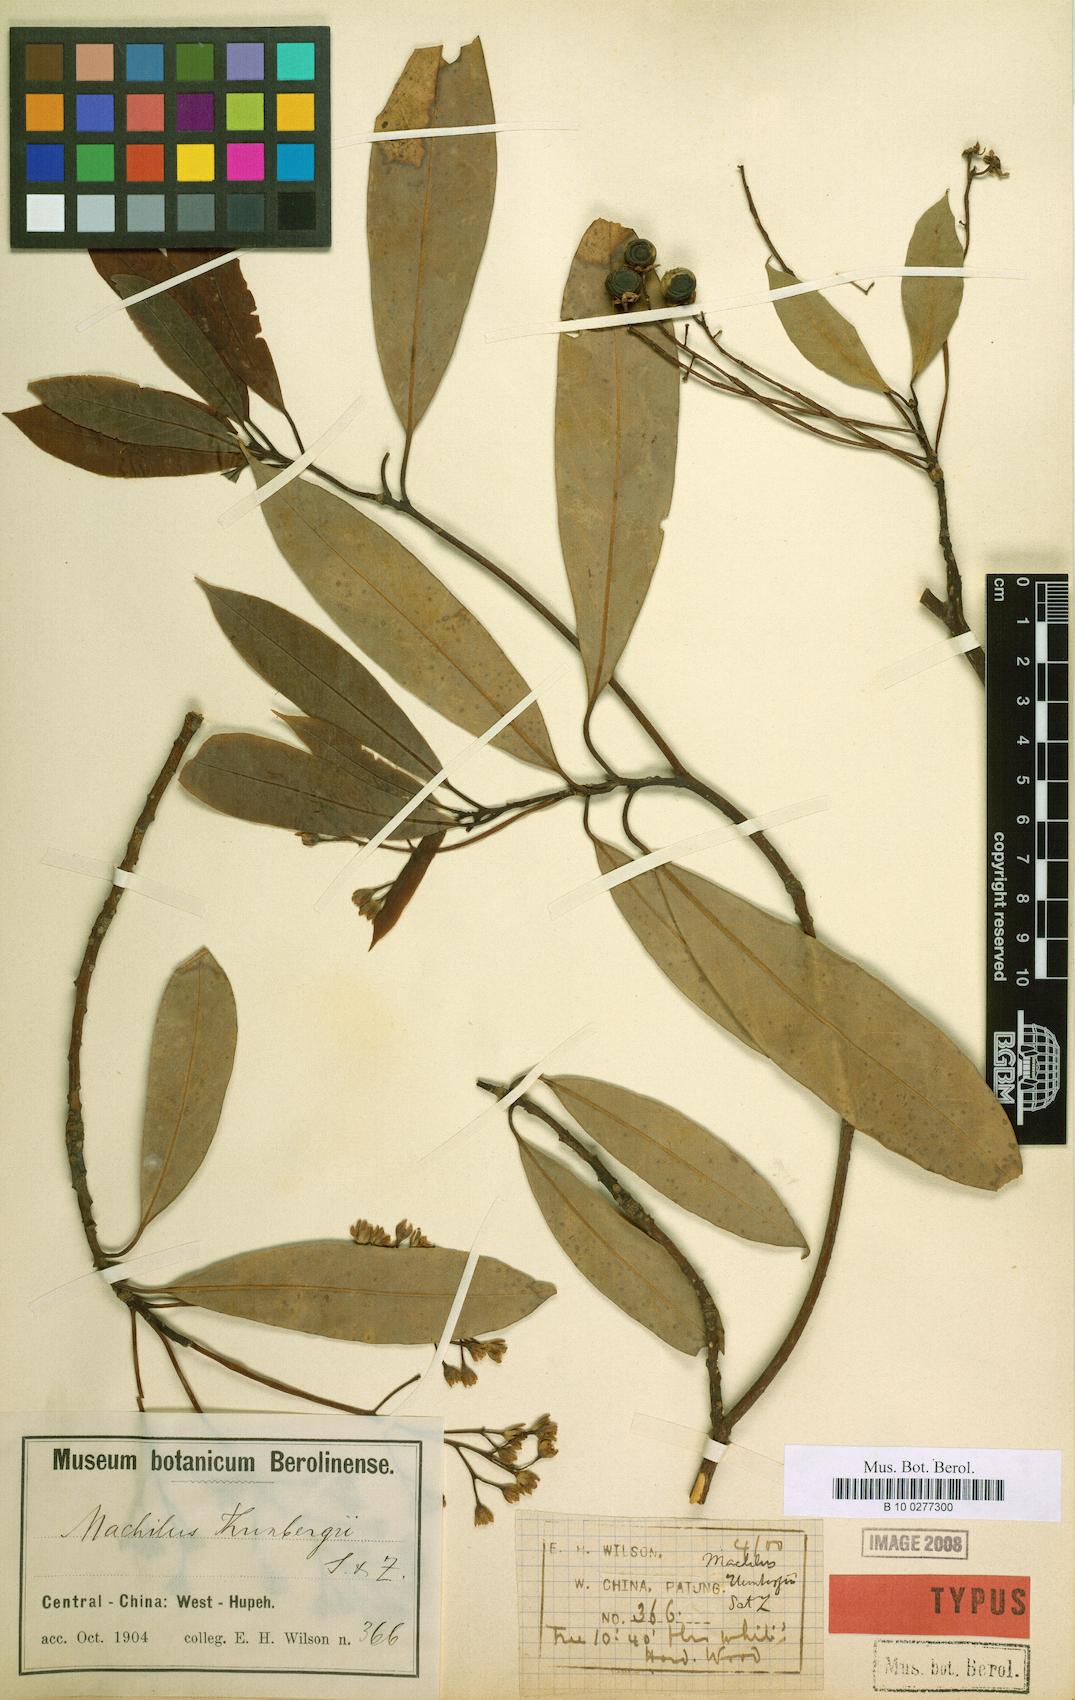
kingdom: Plantae
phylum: Tracheophyta
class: Magnoliopsida
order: Laurales
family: Lauraceae
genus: Machilus
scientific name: Machilus thunbergii
